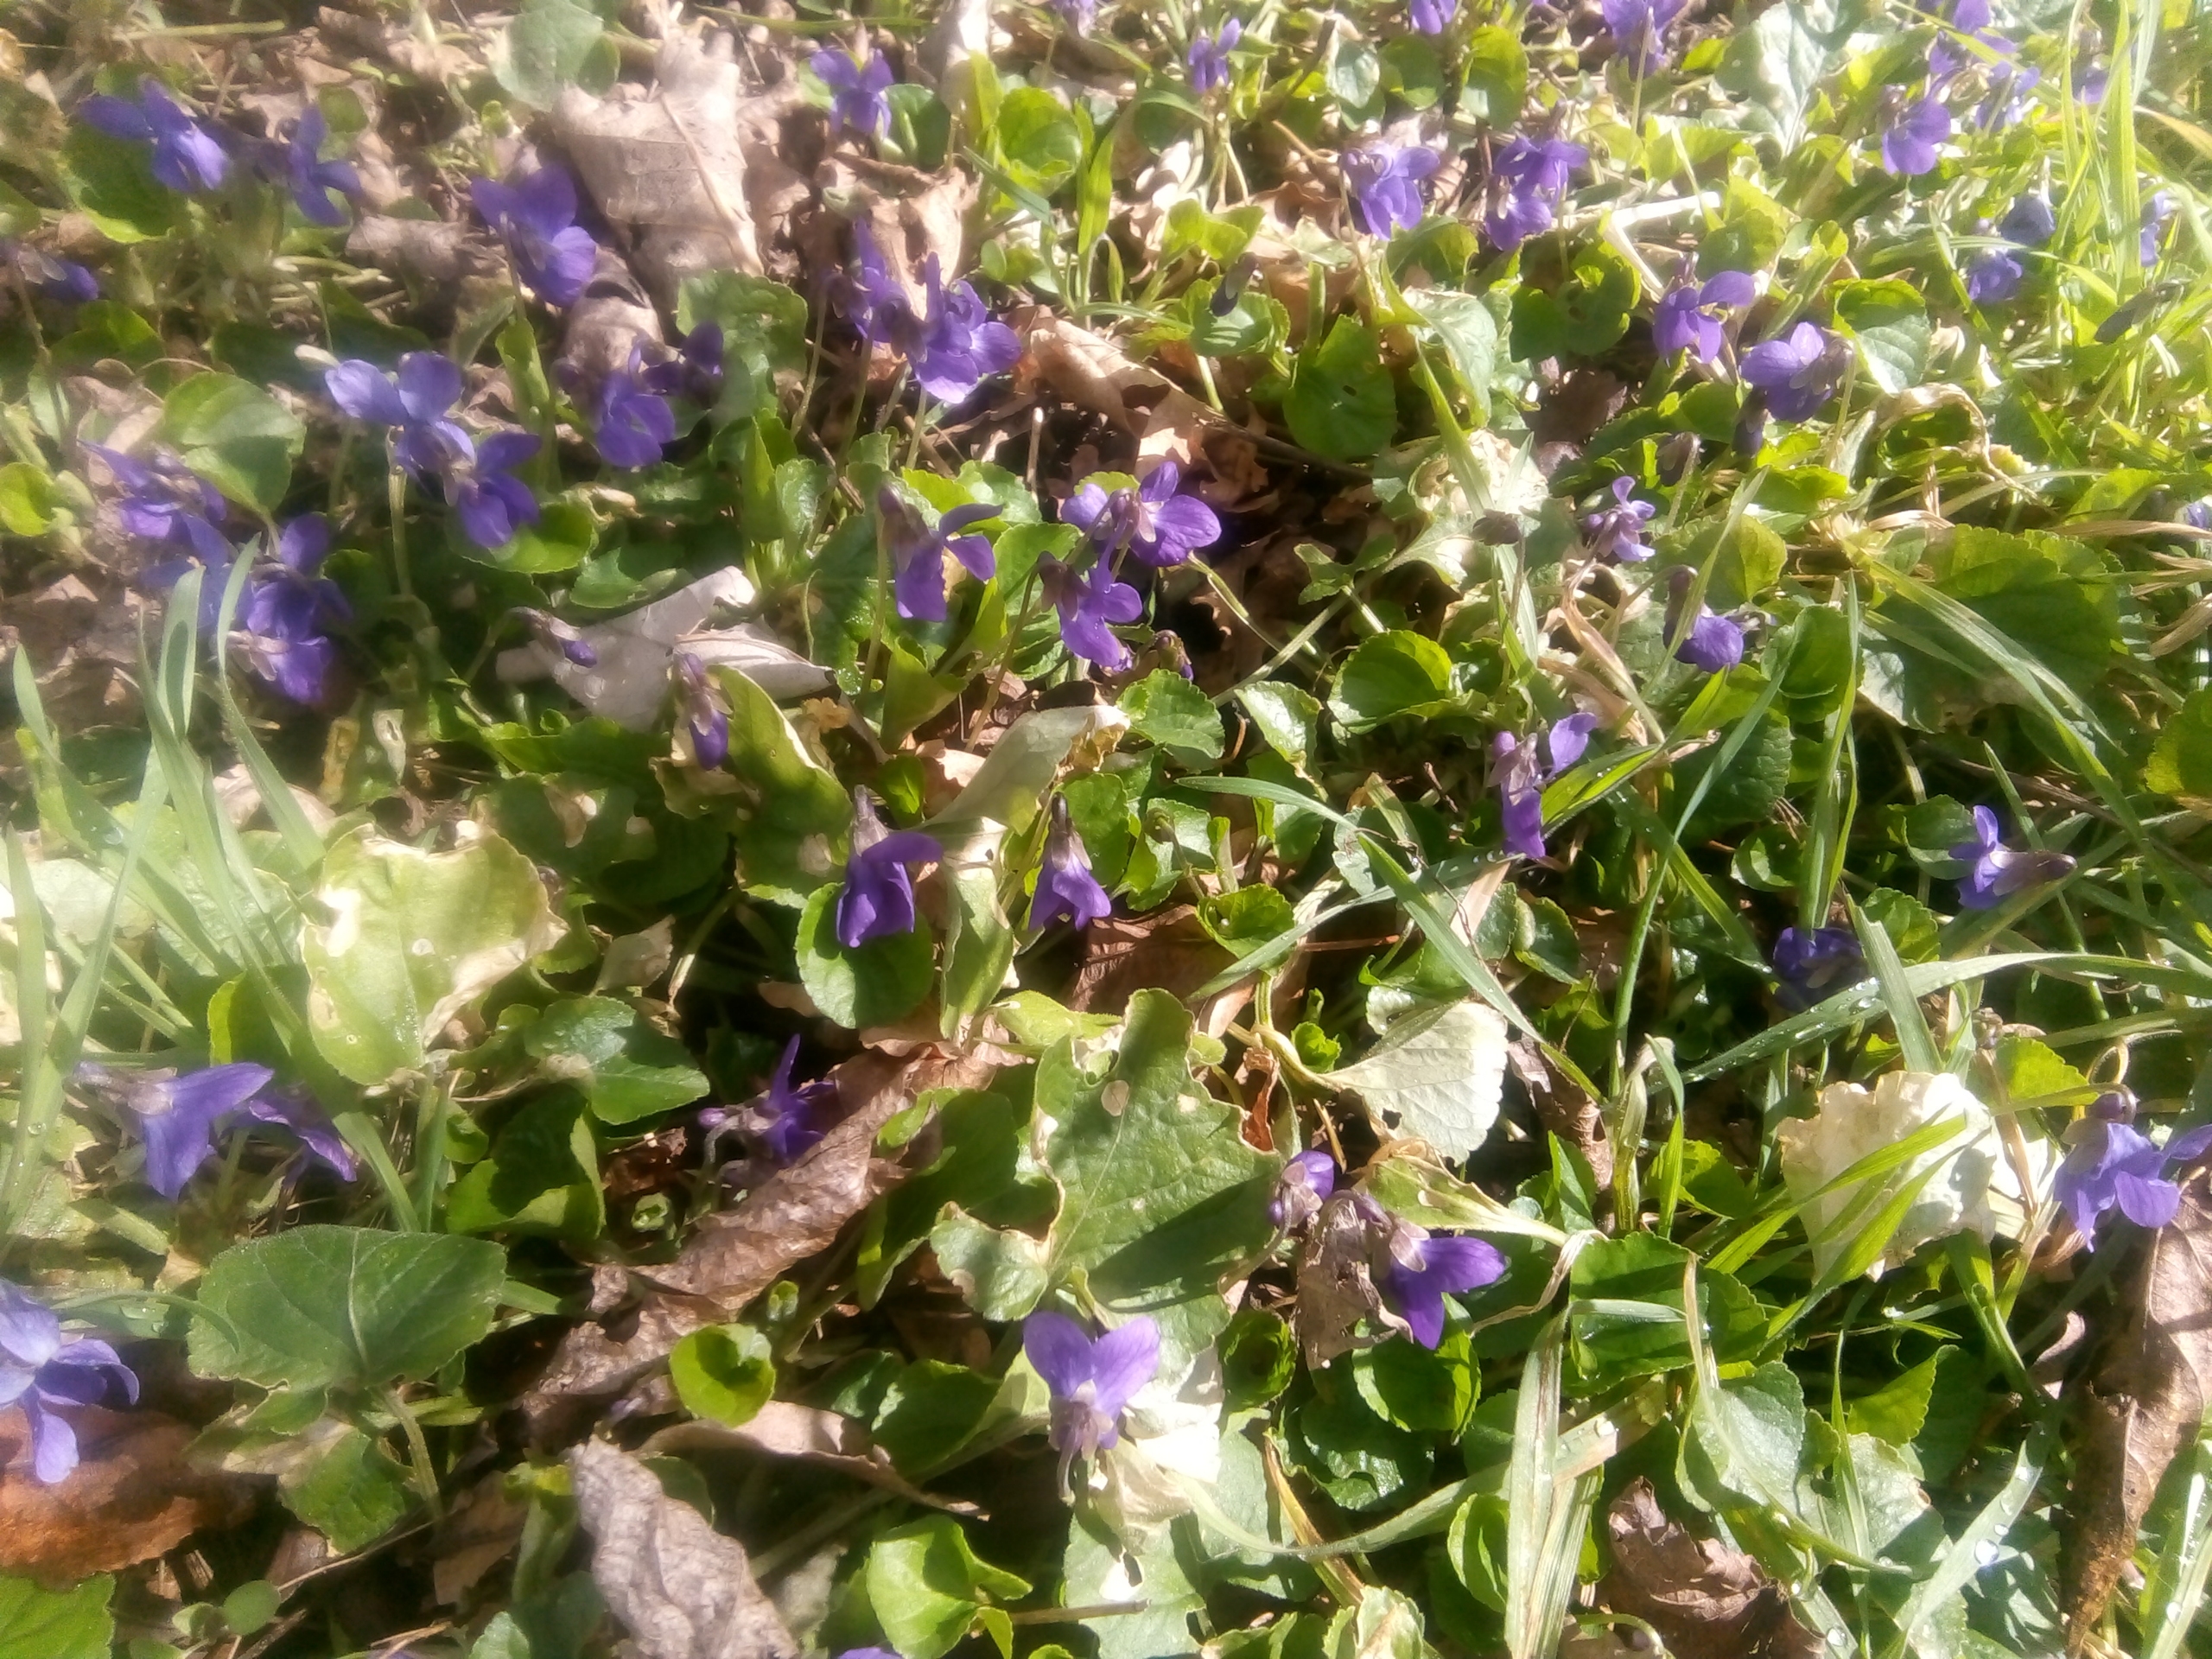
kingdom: Plantae
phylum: Tracheophyta
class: Magnoliopsida
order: Malpighiales
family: Violaceae
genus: Viola
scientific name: Viola odorata
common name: Marts-viol
